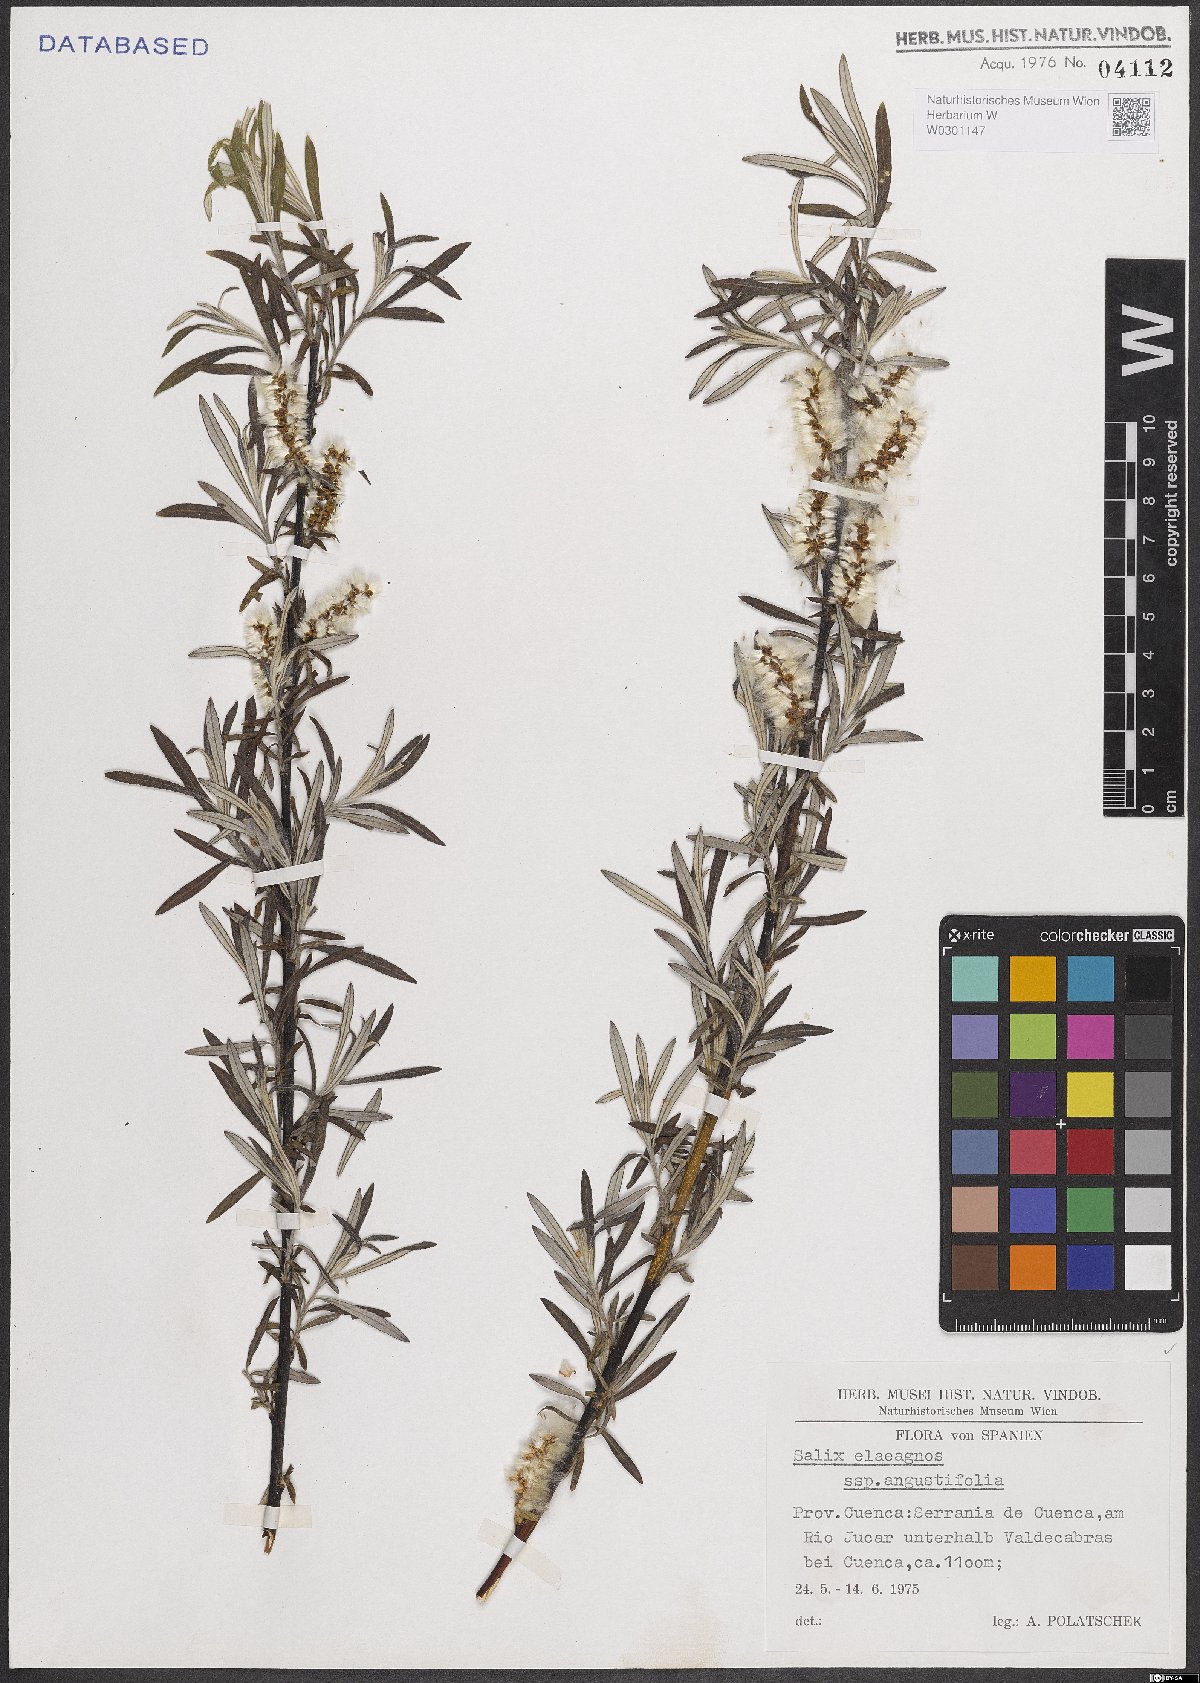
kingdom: Plantae
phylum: Tracheophyta
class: Magnoliopsida
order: Malpighiales
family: Salicaceae
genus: Salix
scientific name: Salix eleagnos
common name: Elaeagnus willow
